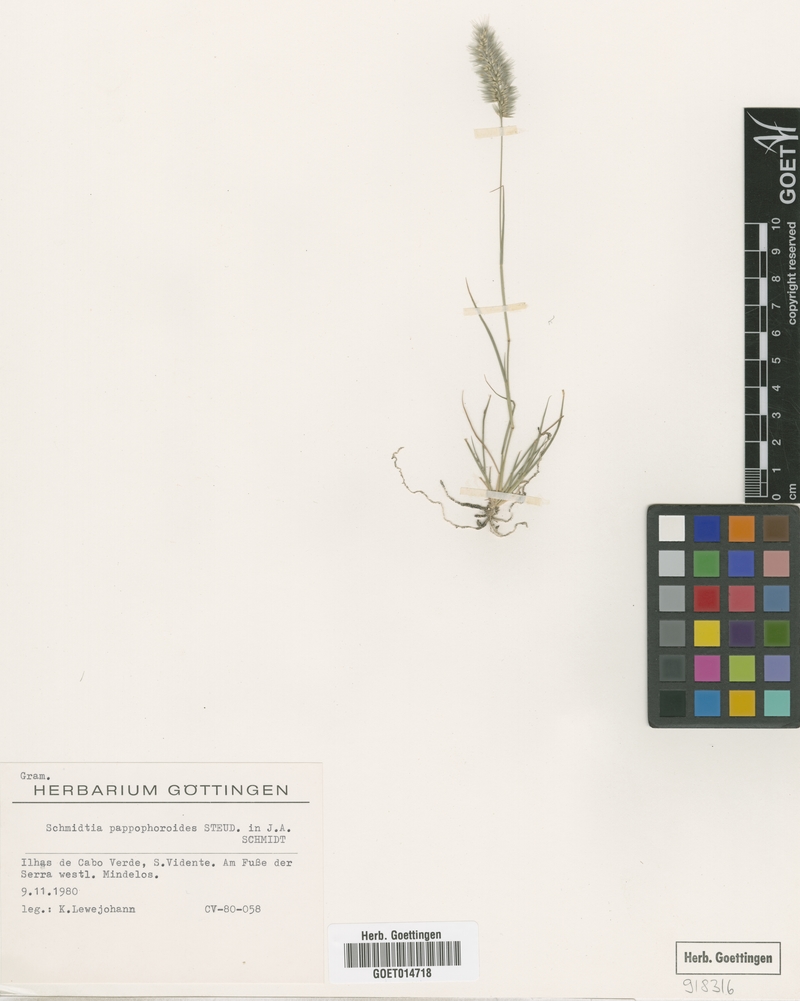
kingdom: Plantae
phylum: Tracheophyta
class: Liliopsida
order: Poales
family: Poaceae
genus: Schmidtia
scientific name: Schmidtia pappophoroides
